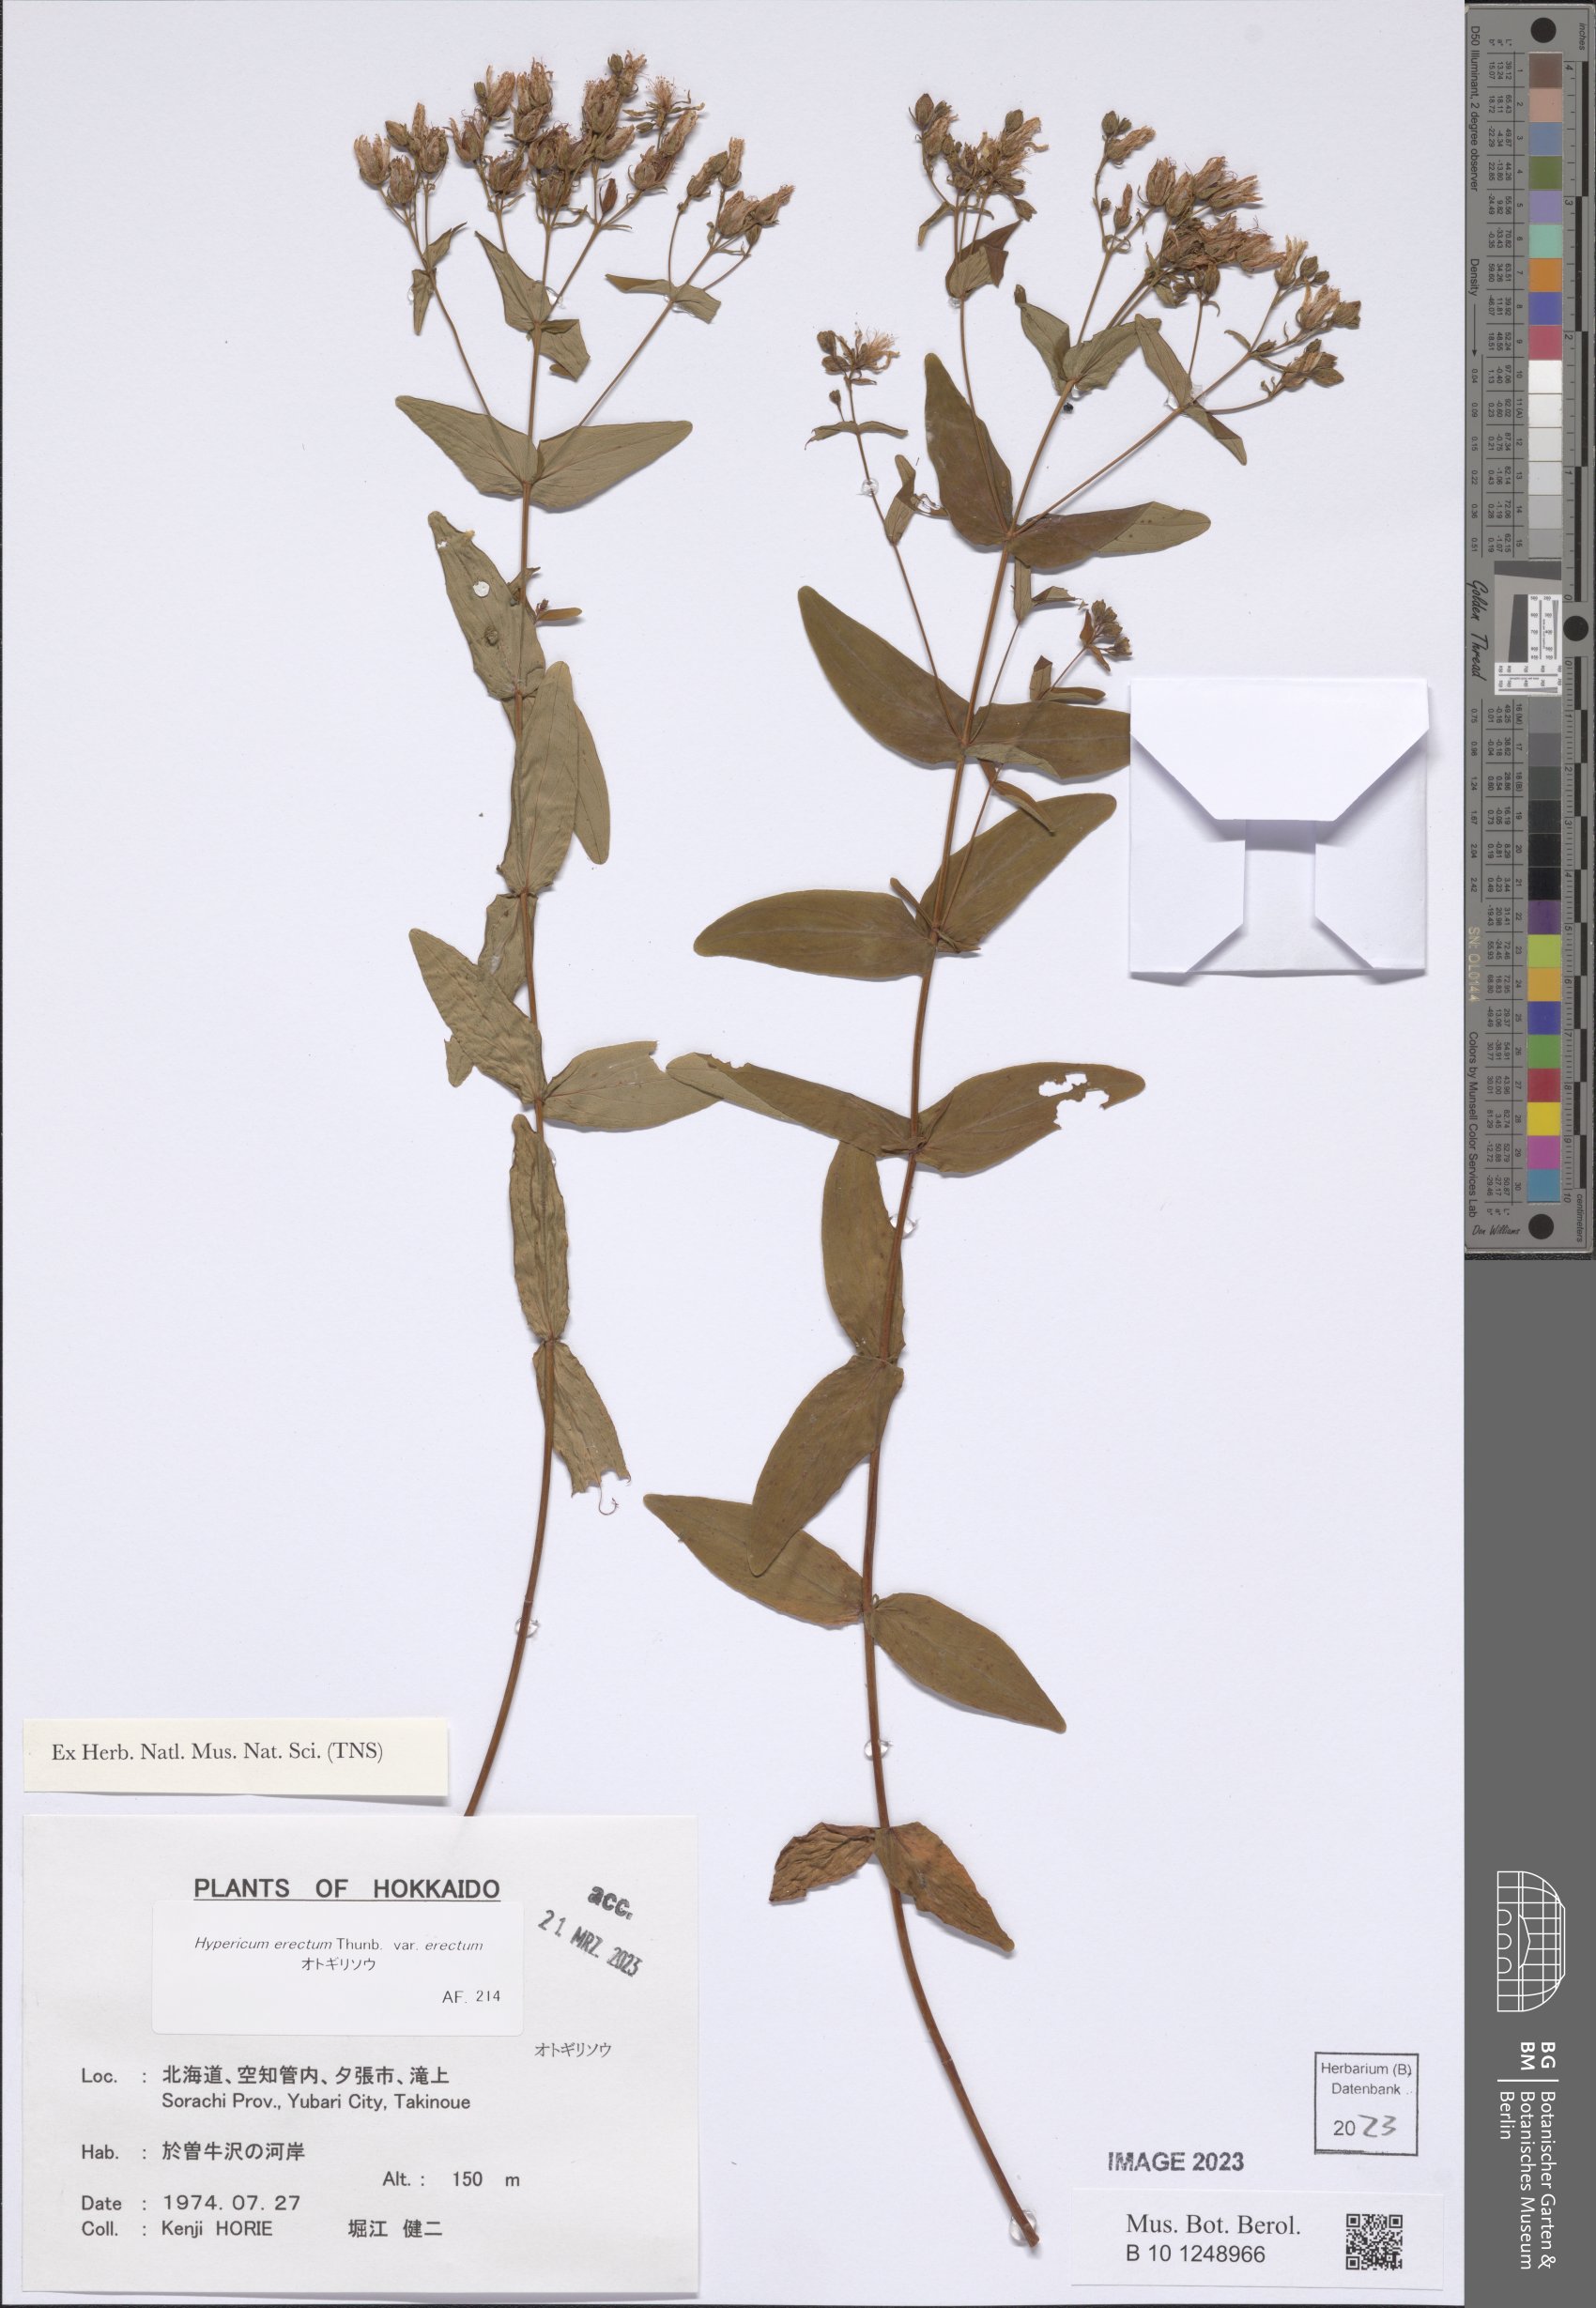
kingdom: Plantae
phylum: Tracheophyta
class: Magnoliopsida
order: Malpighiales
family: Hypericaceae
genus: Hypericum
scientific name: Hypericum erectum
